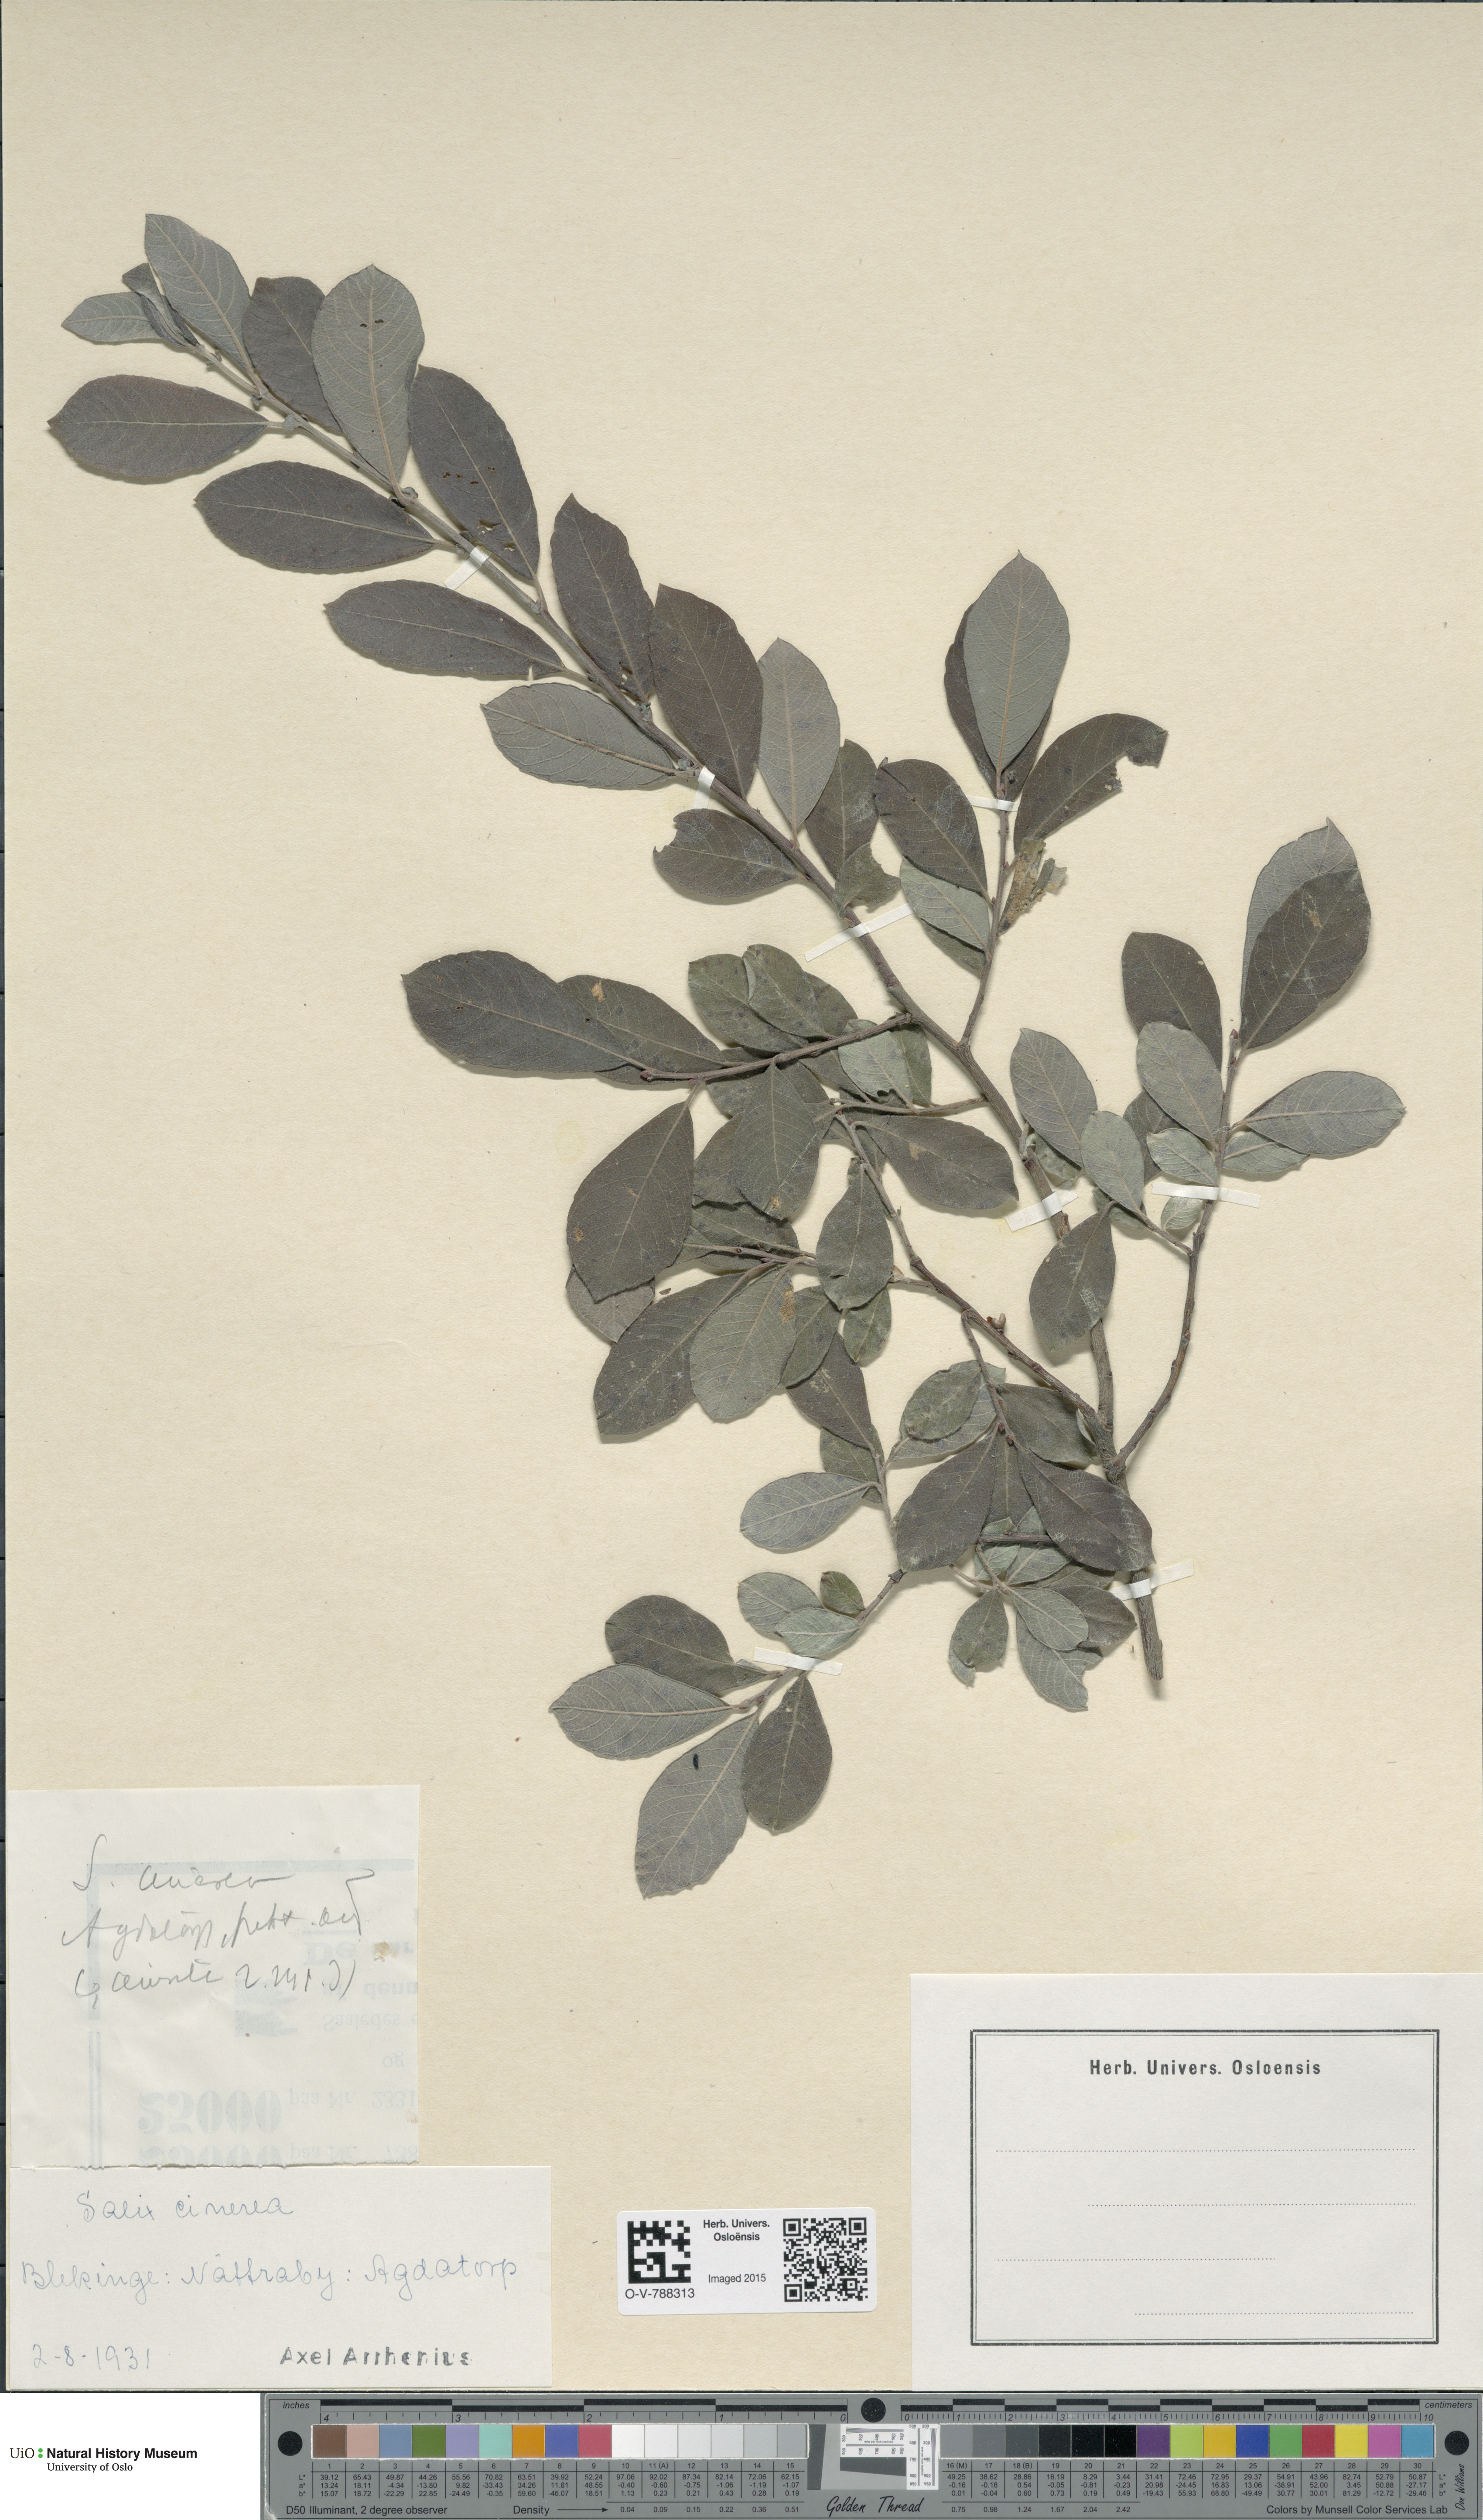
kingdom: Plantae
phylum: Tracheophyta
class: Magnoliopsida
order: Malpighiales
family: Salicaceae
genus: Salix
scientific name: Salix cinerea
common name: Common sallow
